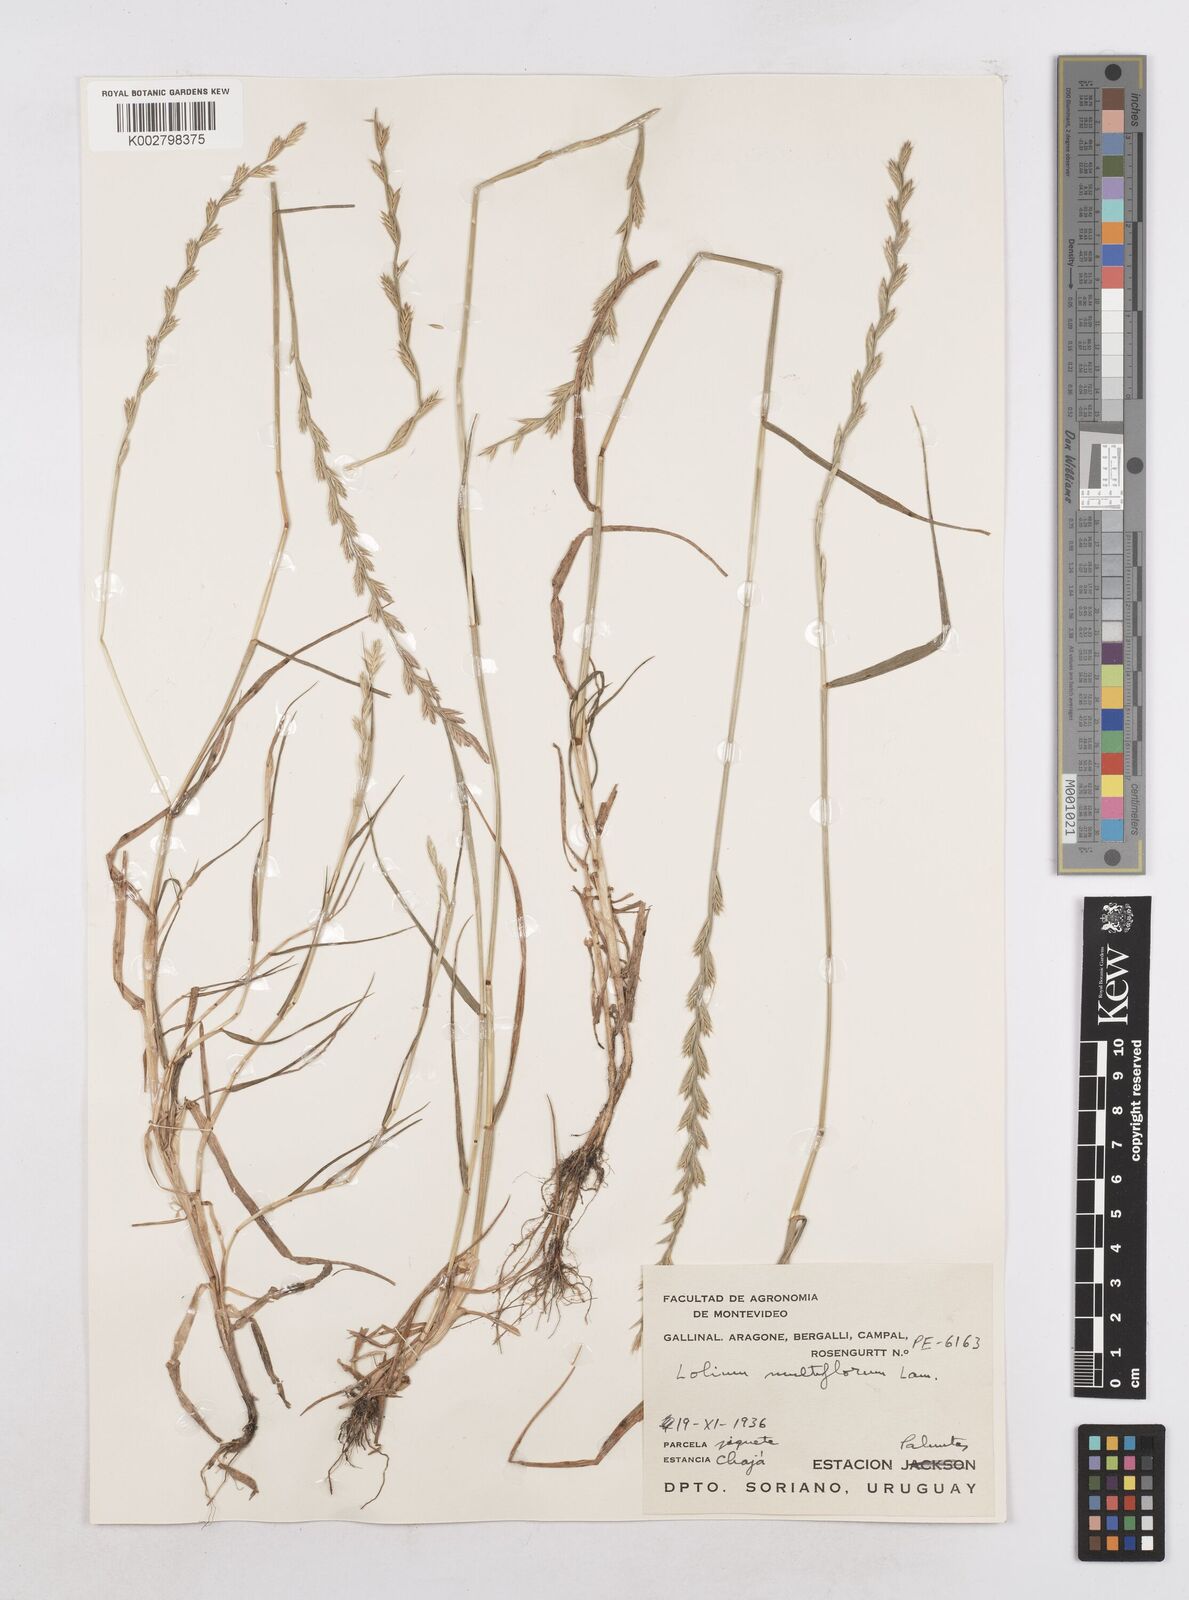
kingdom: Plantae
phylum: Tracheophyta
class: Liliopsida
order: Poales
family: Poaceae
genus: Lolium
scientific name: Lolium multiflorum
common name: Annual ryegrass
